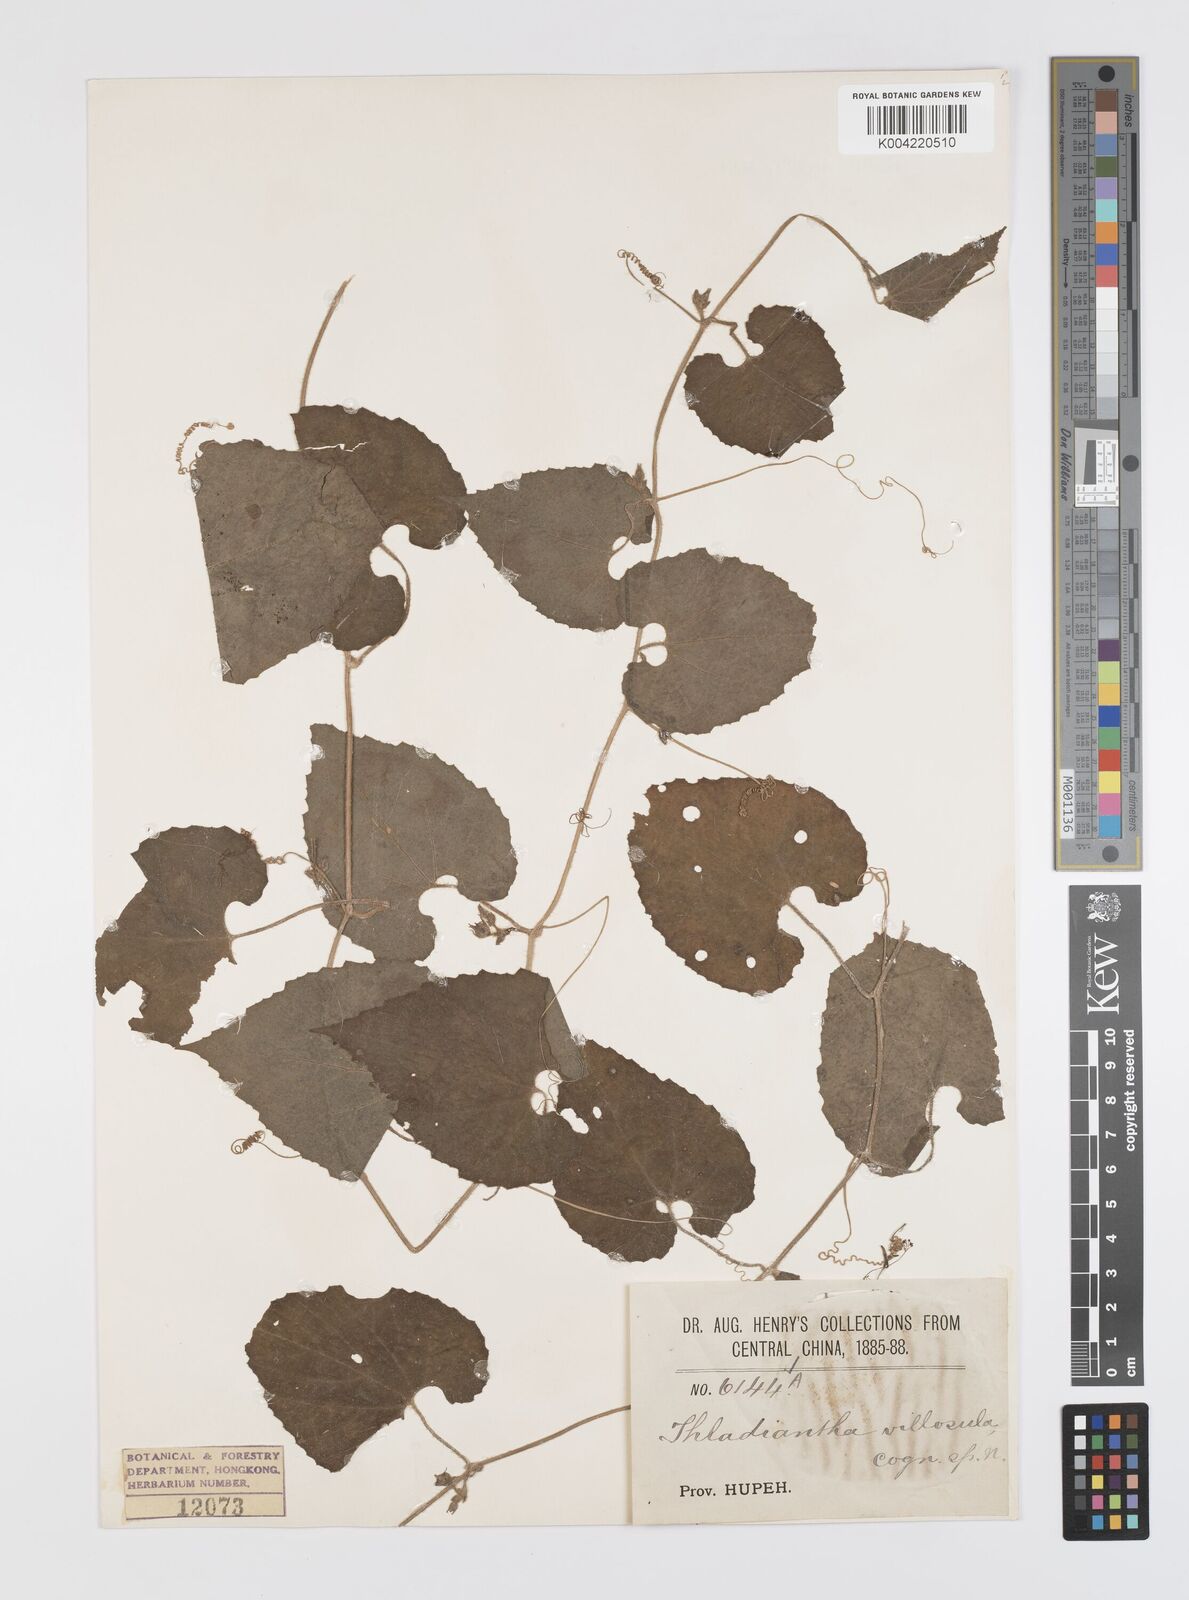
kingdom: Plantae
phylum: Tracheophyta
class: Magnoliopsida
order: Cucurbitales
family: Cucurbitaceae
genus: Thladiantha
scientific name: Thladiantha villosula
